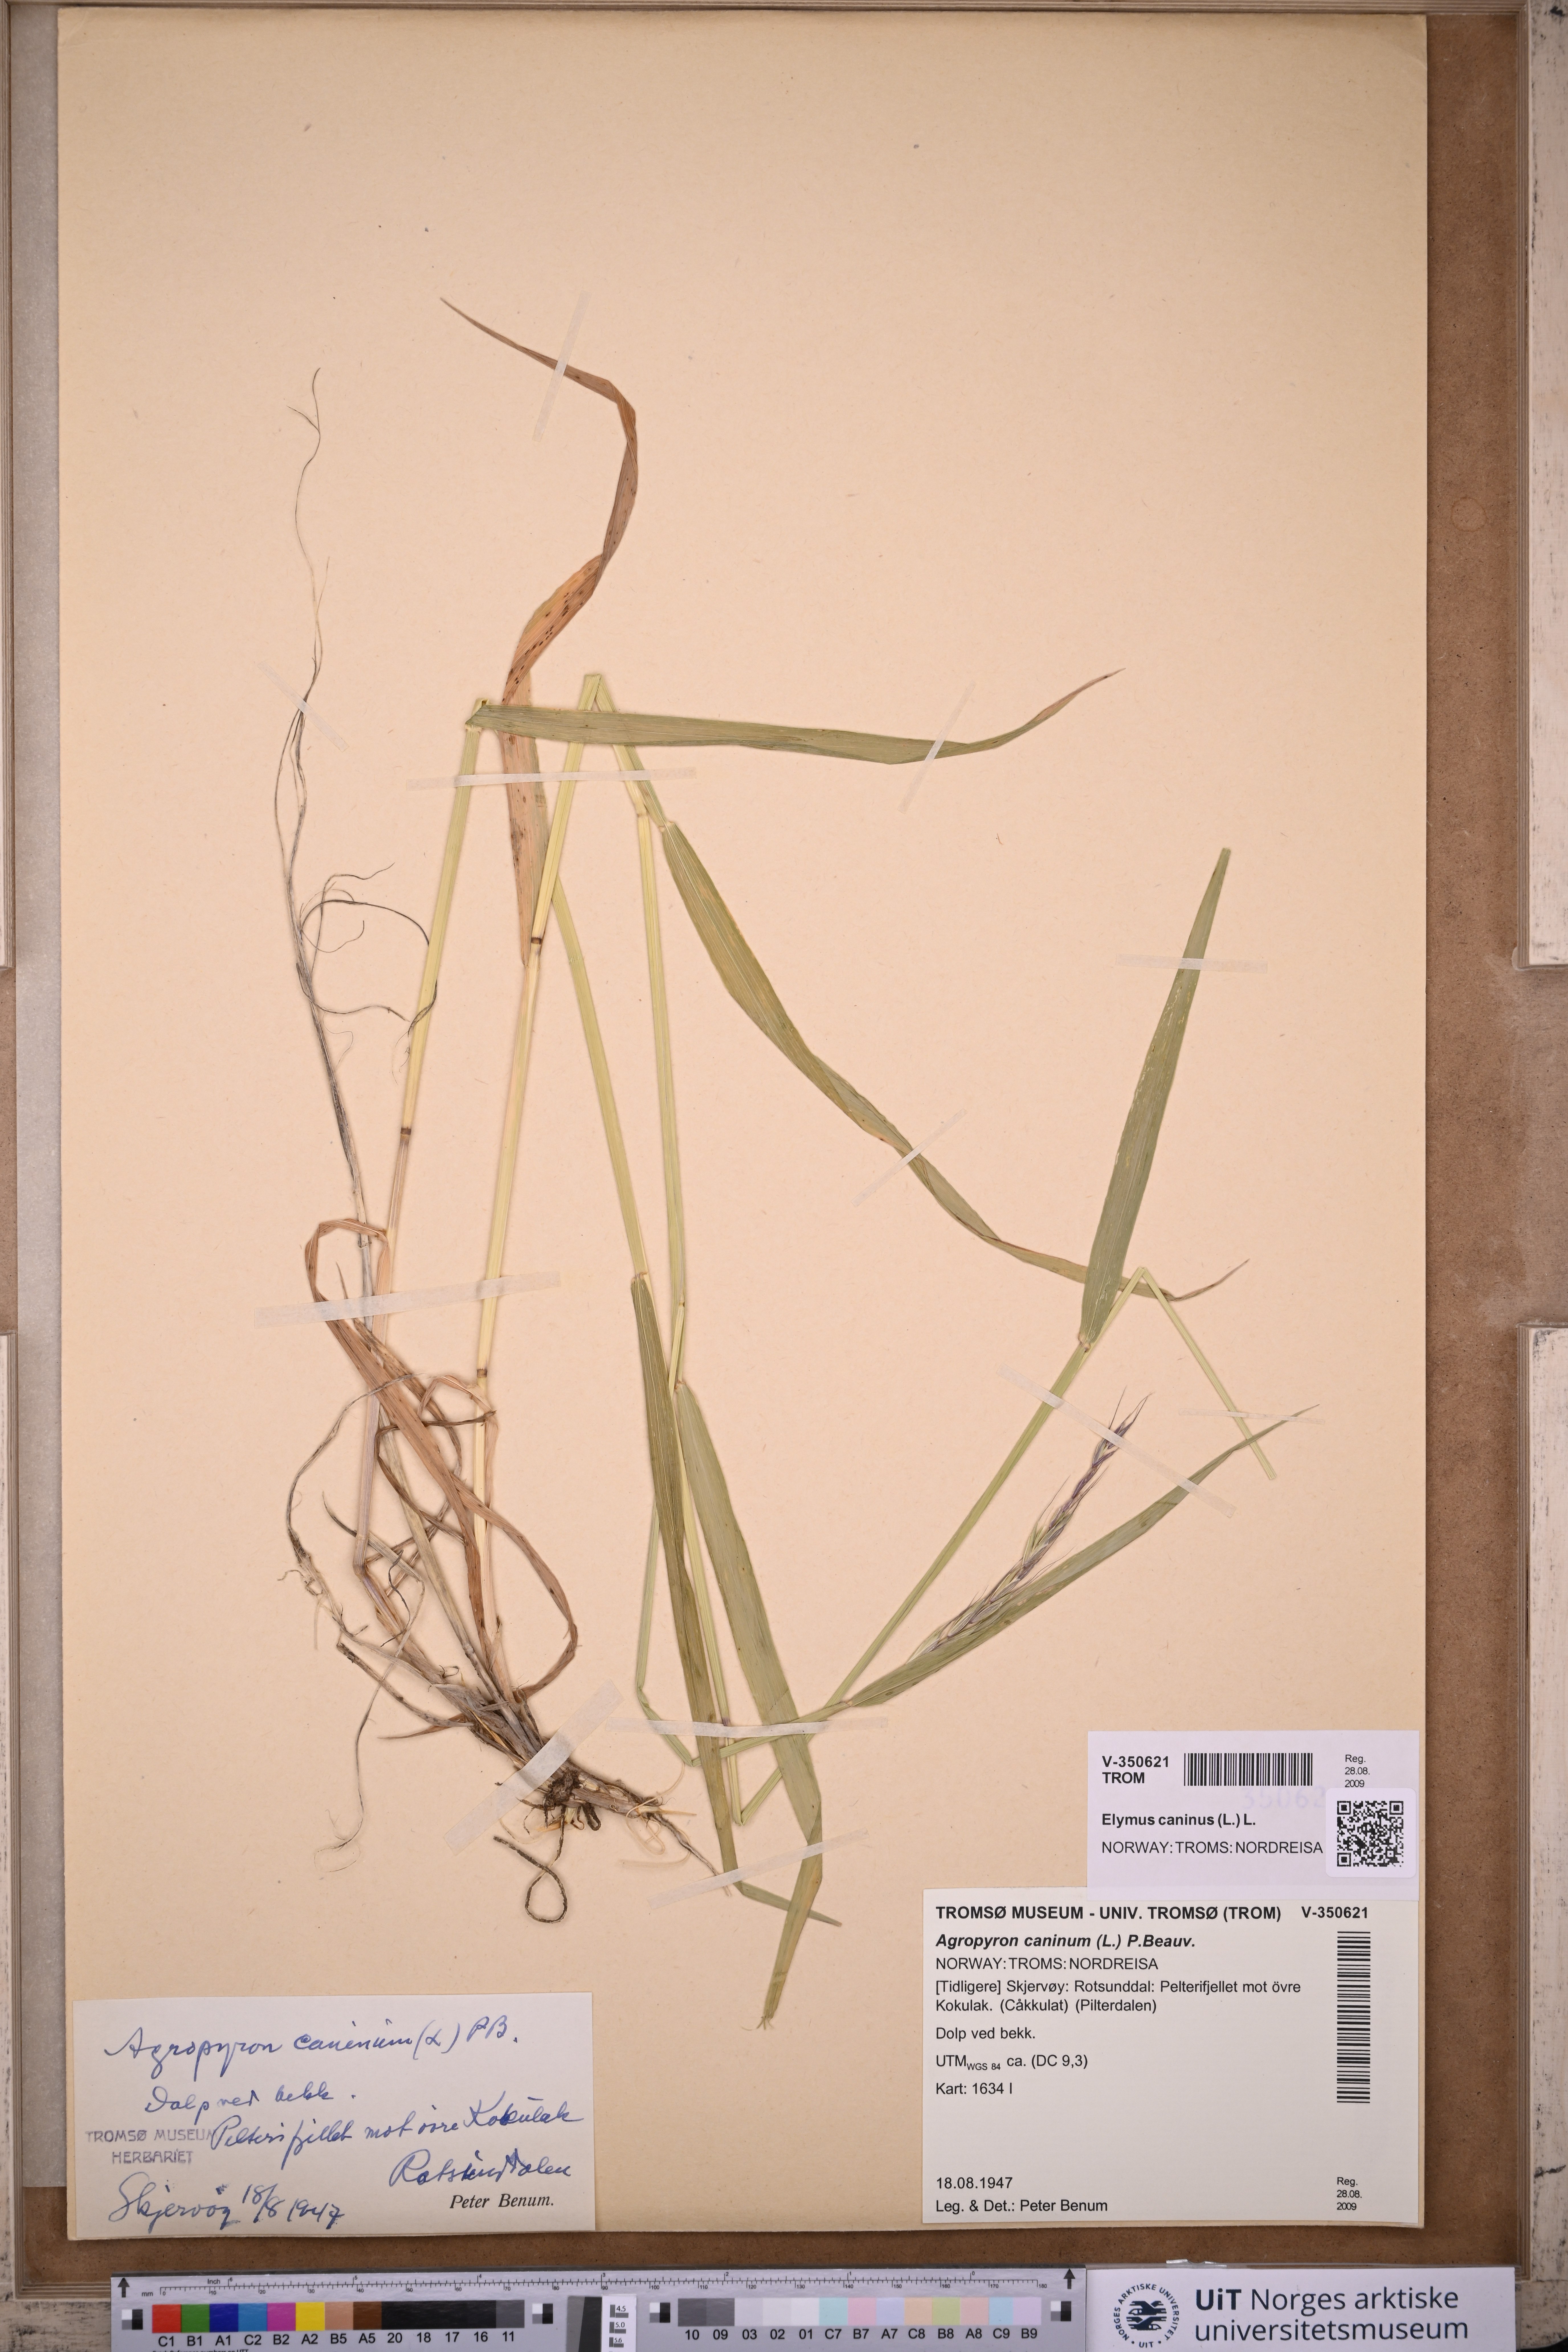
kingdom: Plantae
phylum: Tracheophyta
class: Liliopsida
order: Poales
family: Poaceae
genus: Elymus
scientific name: Elymus caninus
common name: Bearded couch
